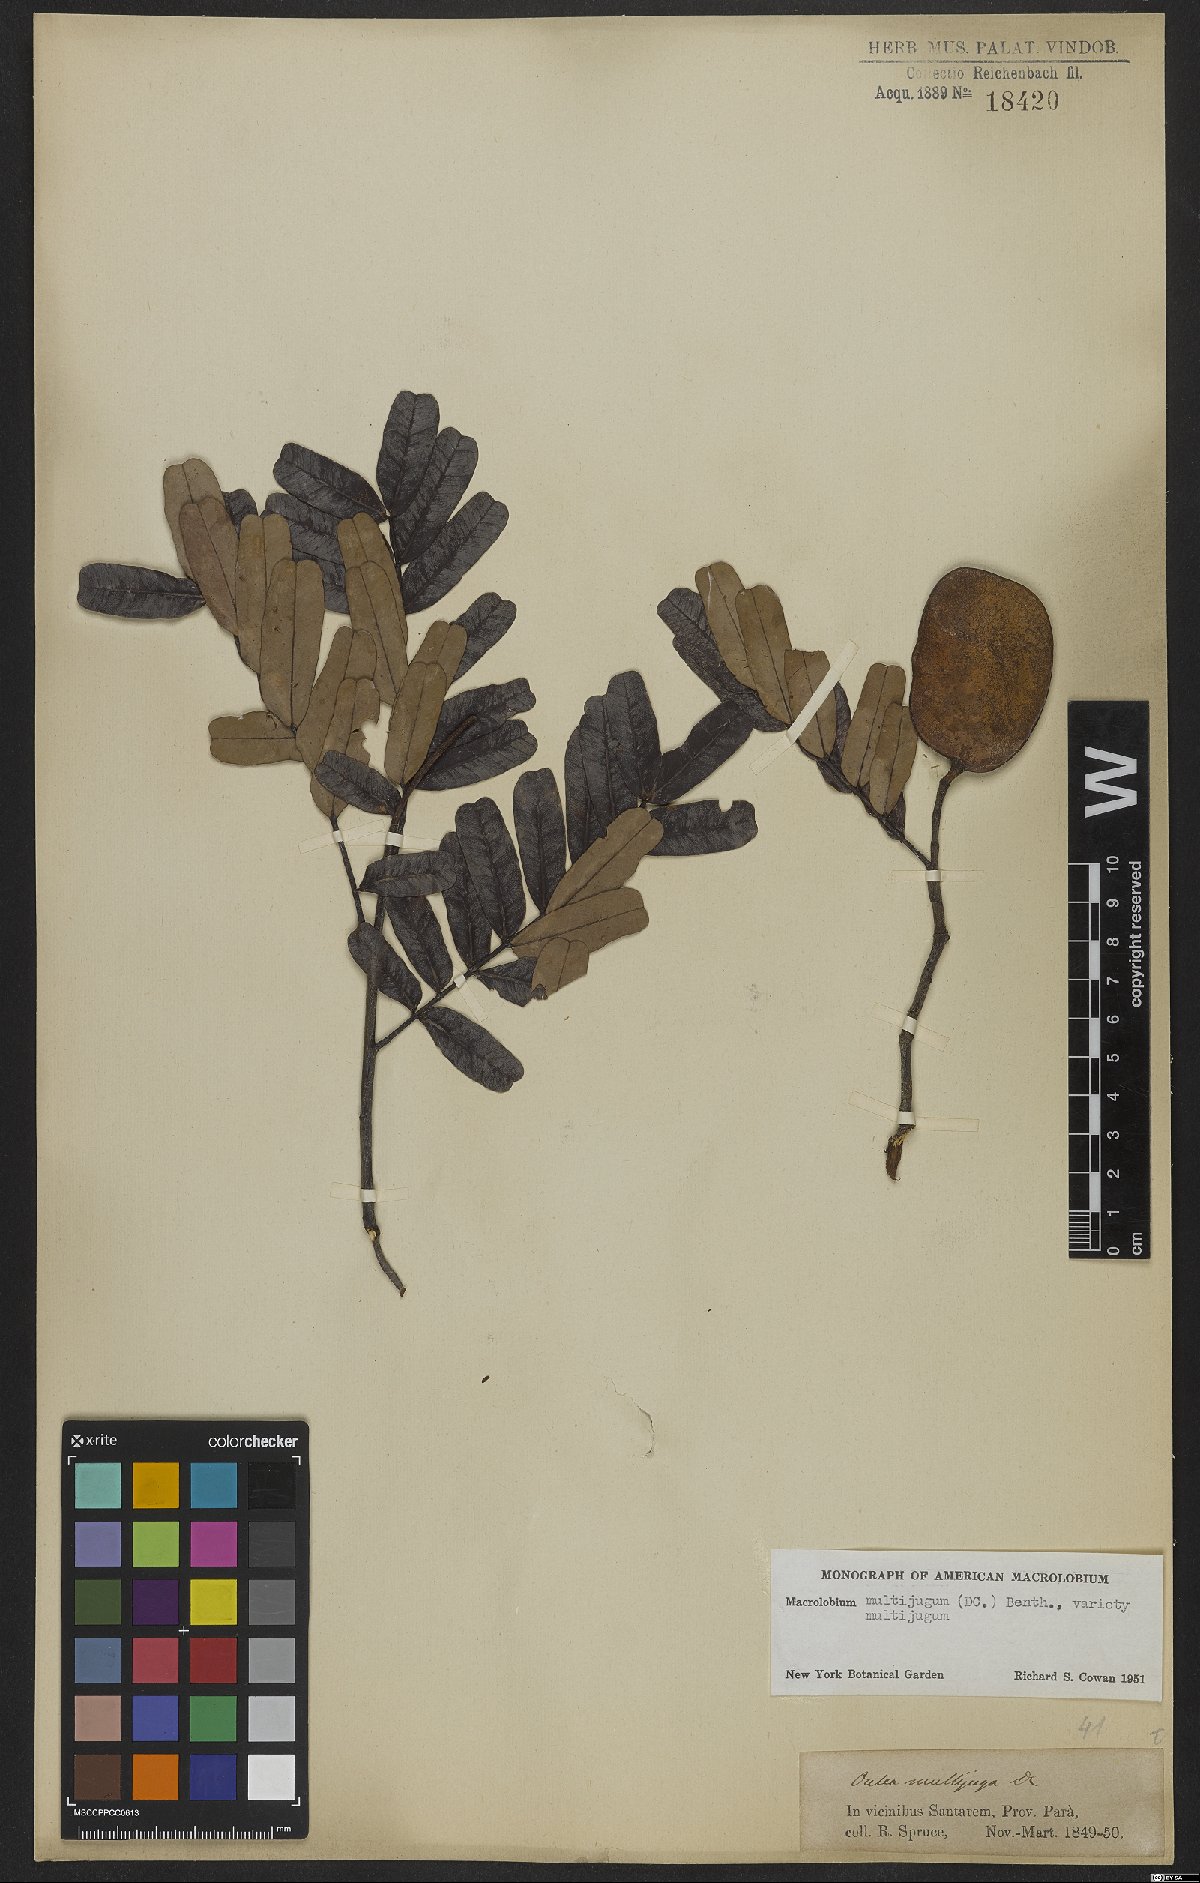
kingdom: Plantae
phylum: Tracheophyta
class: Magnoliopsida
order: Fabales
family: Fabaceae
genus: Macrolobium
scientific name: Macrolobium multijugum
